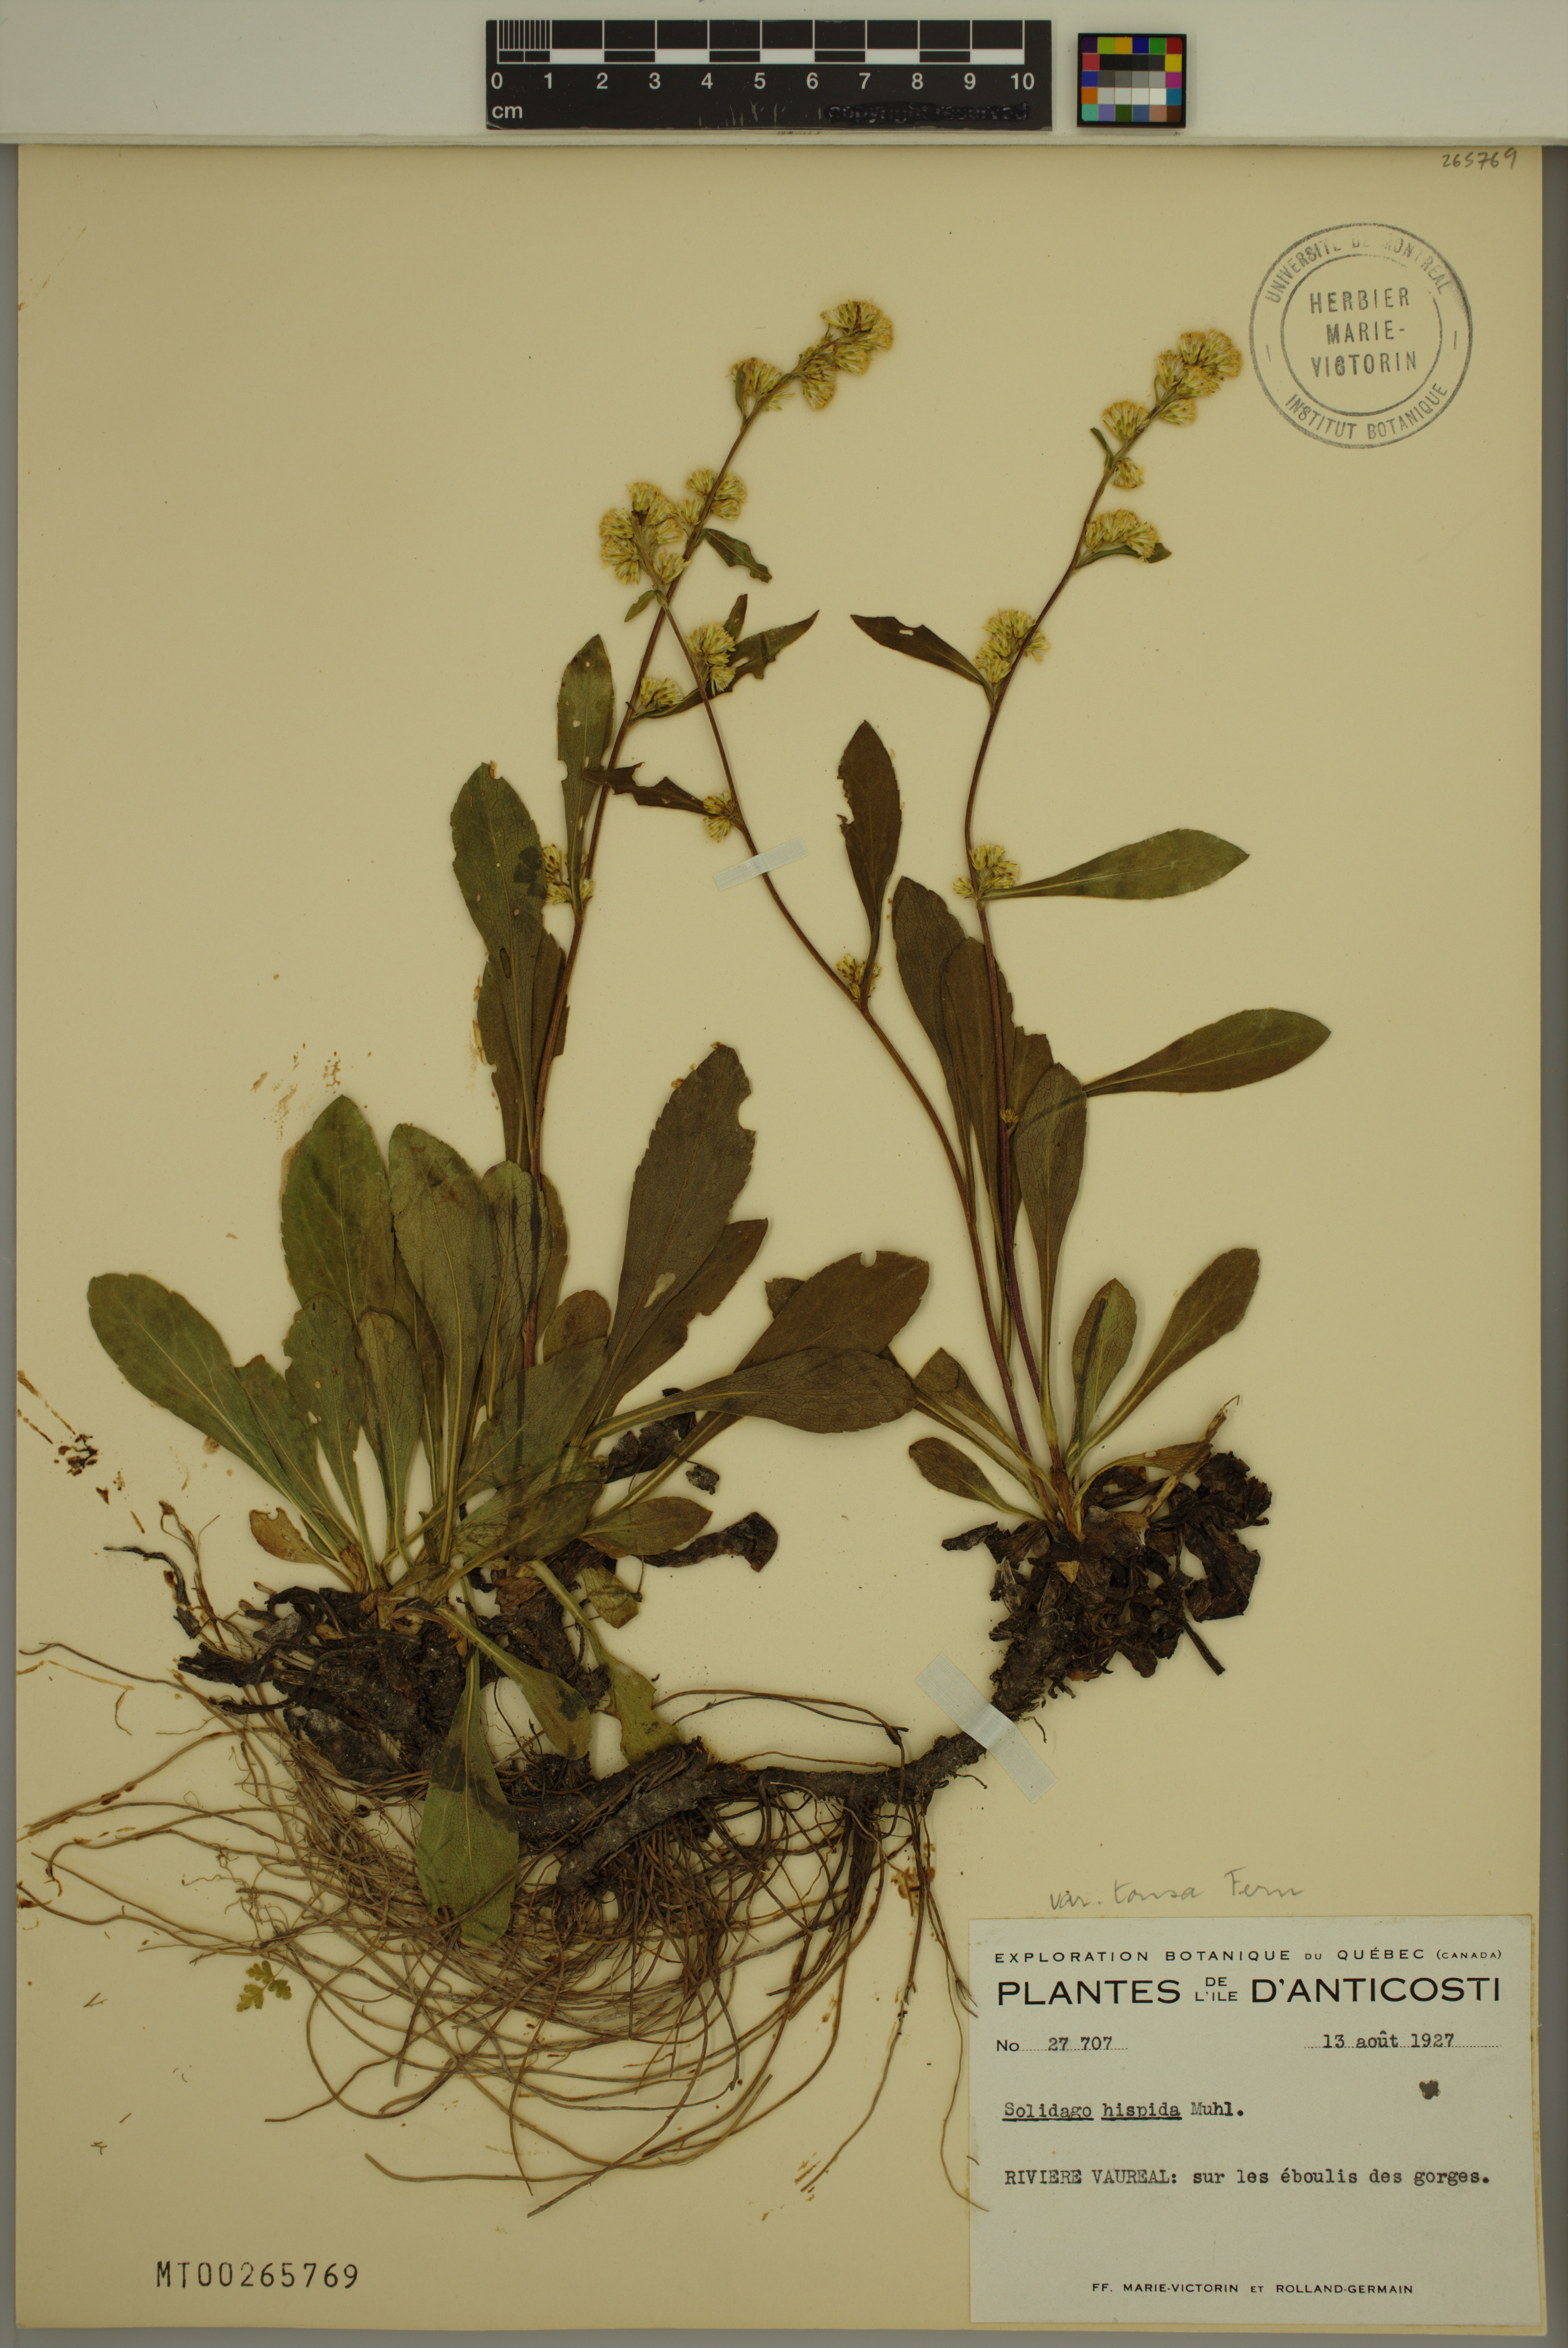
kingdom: Plantae
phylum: Tracheophyta
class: Magnoliopsida
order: Asterales
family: Asteraceae
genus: Solidago
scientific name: Solidago hispida
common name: Hairy goldenrod
